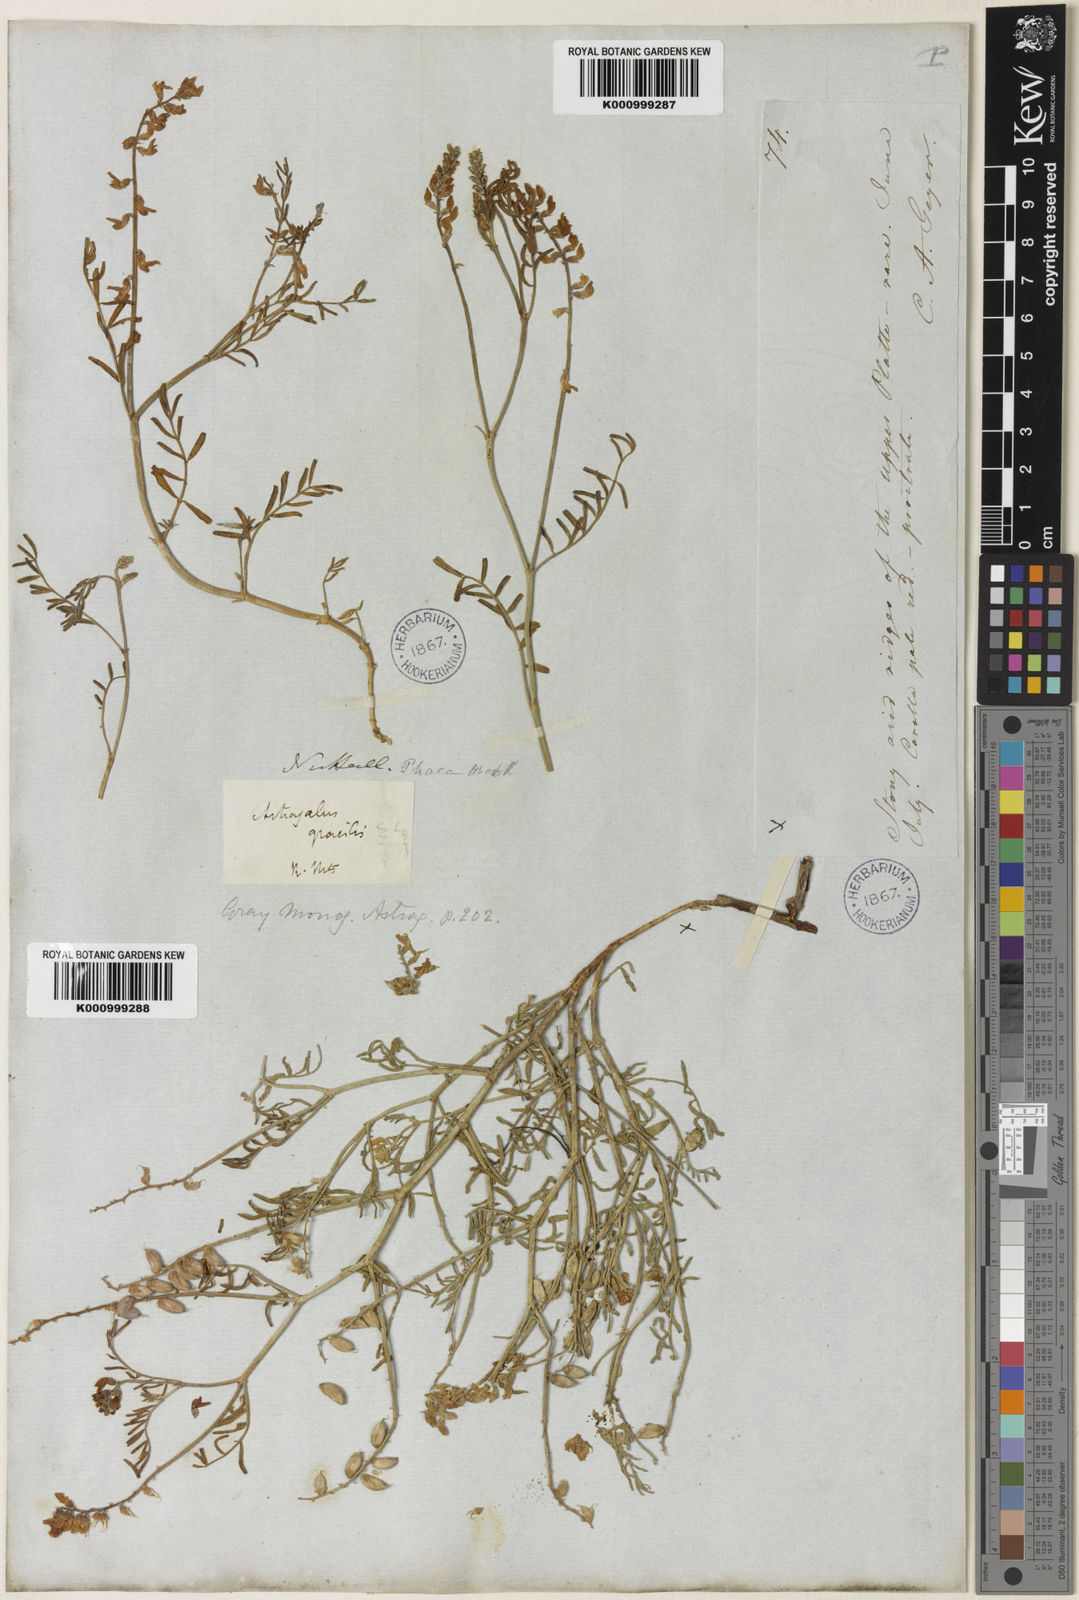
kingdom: Plantae
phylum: Tracheophyta
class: Magnoliopsida
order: Fabales
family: Fabaceae
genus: Astragalus
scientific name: Astragalus gracilis
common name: Slender milk-vetch
